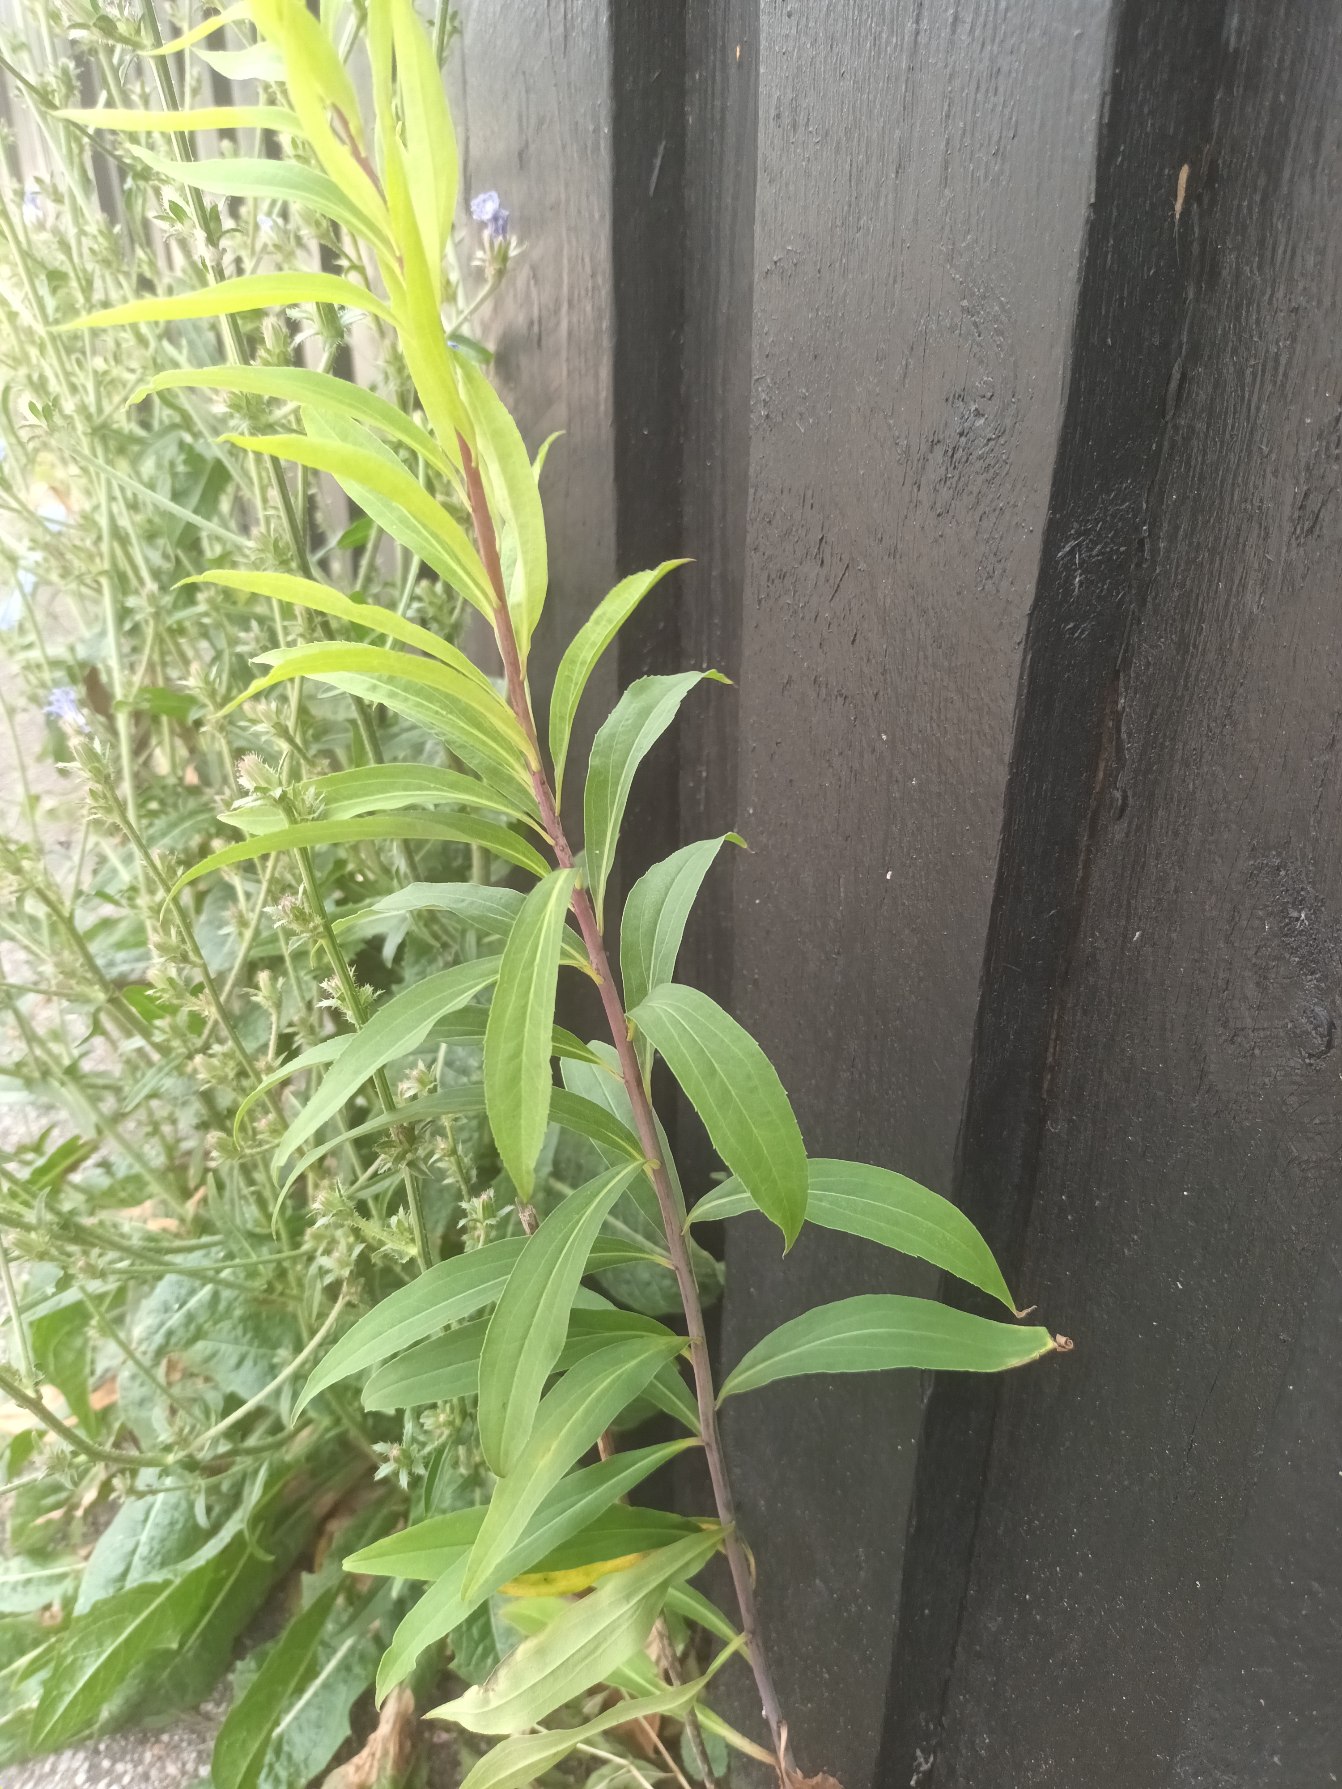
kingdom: Plantae
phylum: Tracheophyta
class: Magnoliopsida
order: Asterales
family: Asteraceae
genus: Solidago
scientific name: Solidago gigantea
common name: Sildig gyldenris
